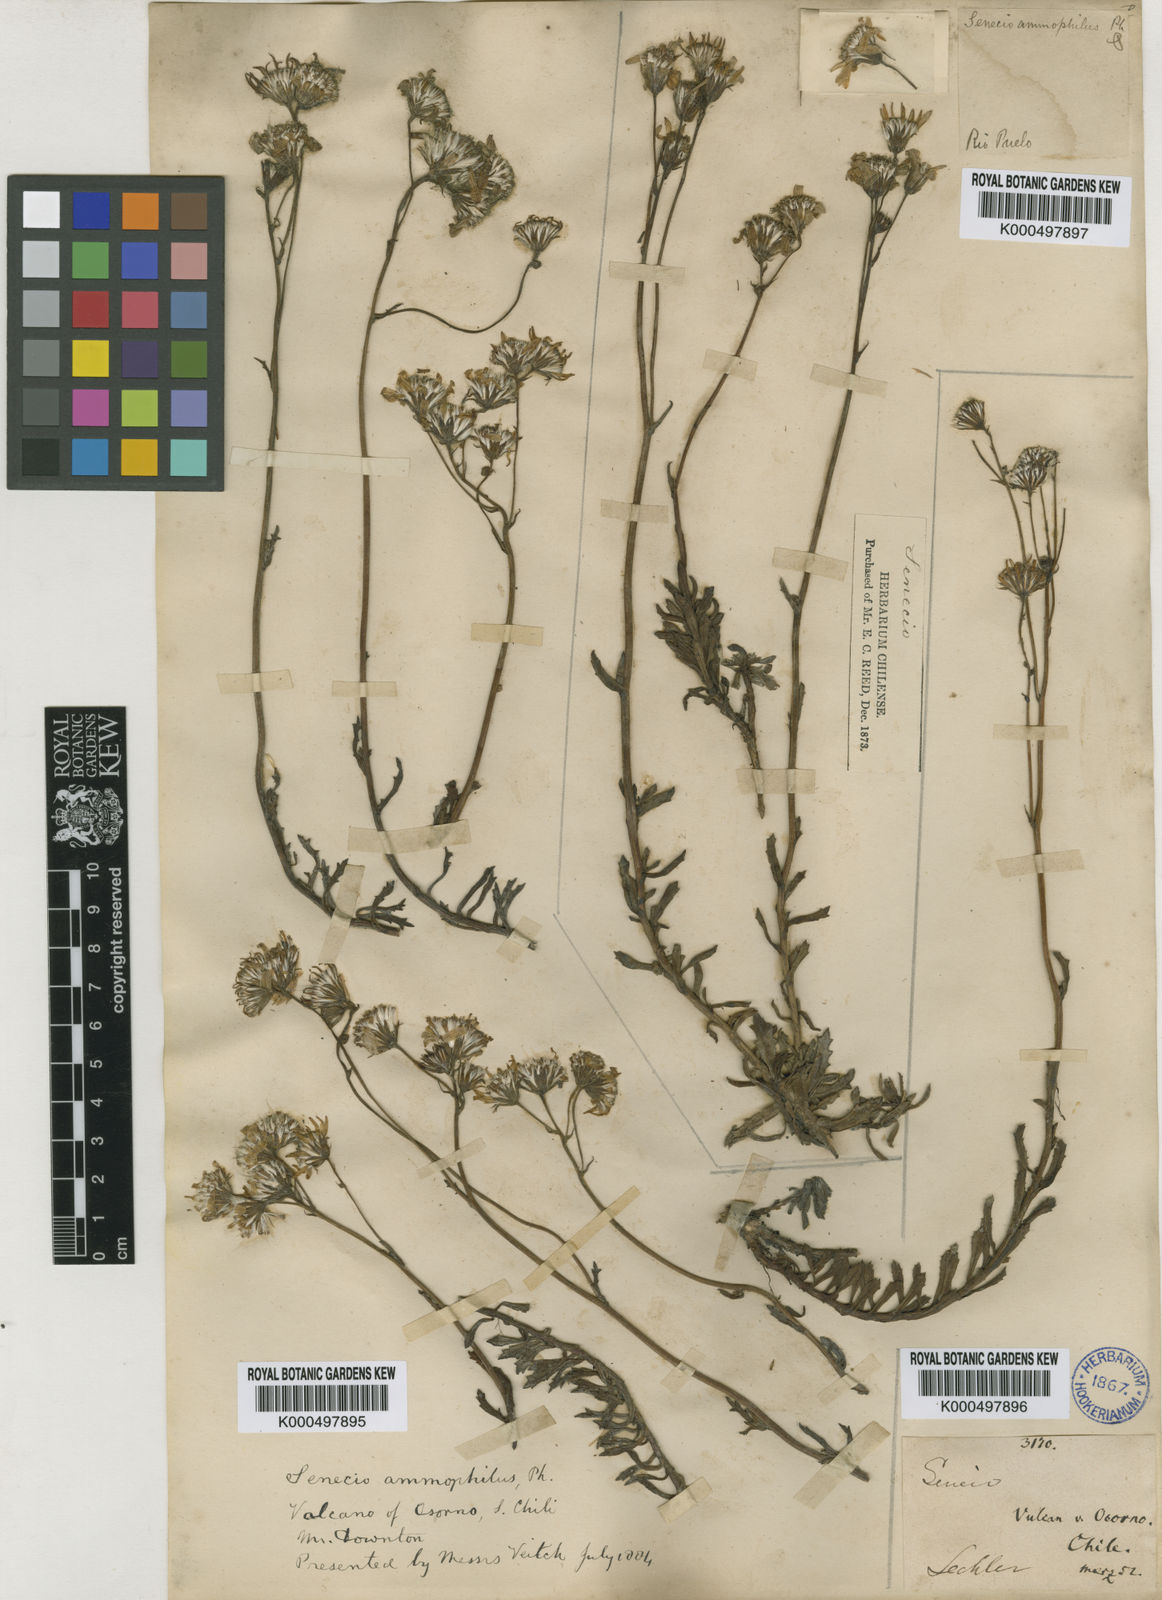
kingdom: Plantae
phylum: Tracheophyta
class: Magnoliopsida
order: Asterales
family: Asteraceae
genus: Senecio
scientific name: Senecio
